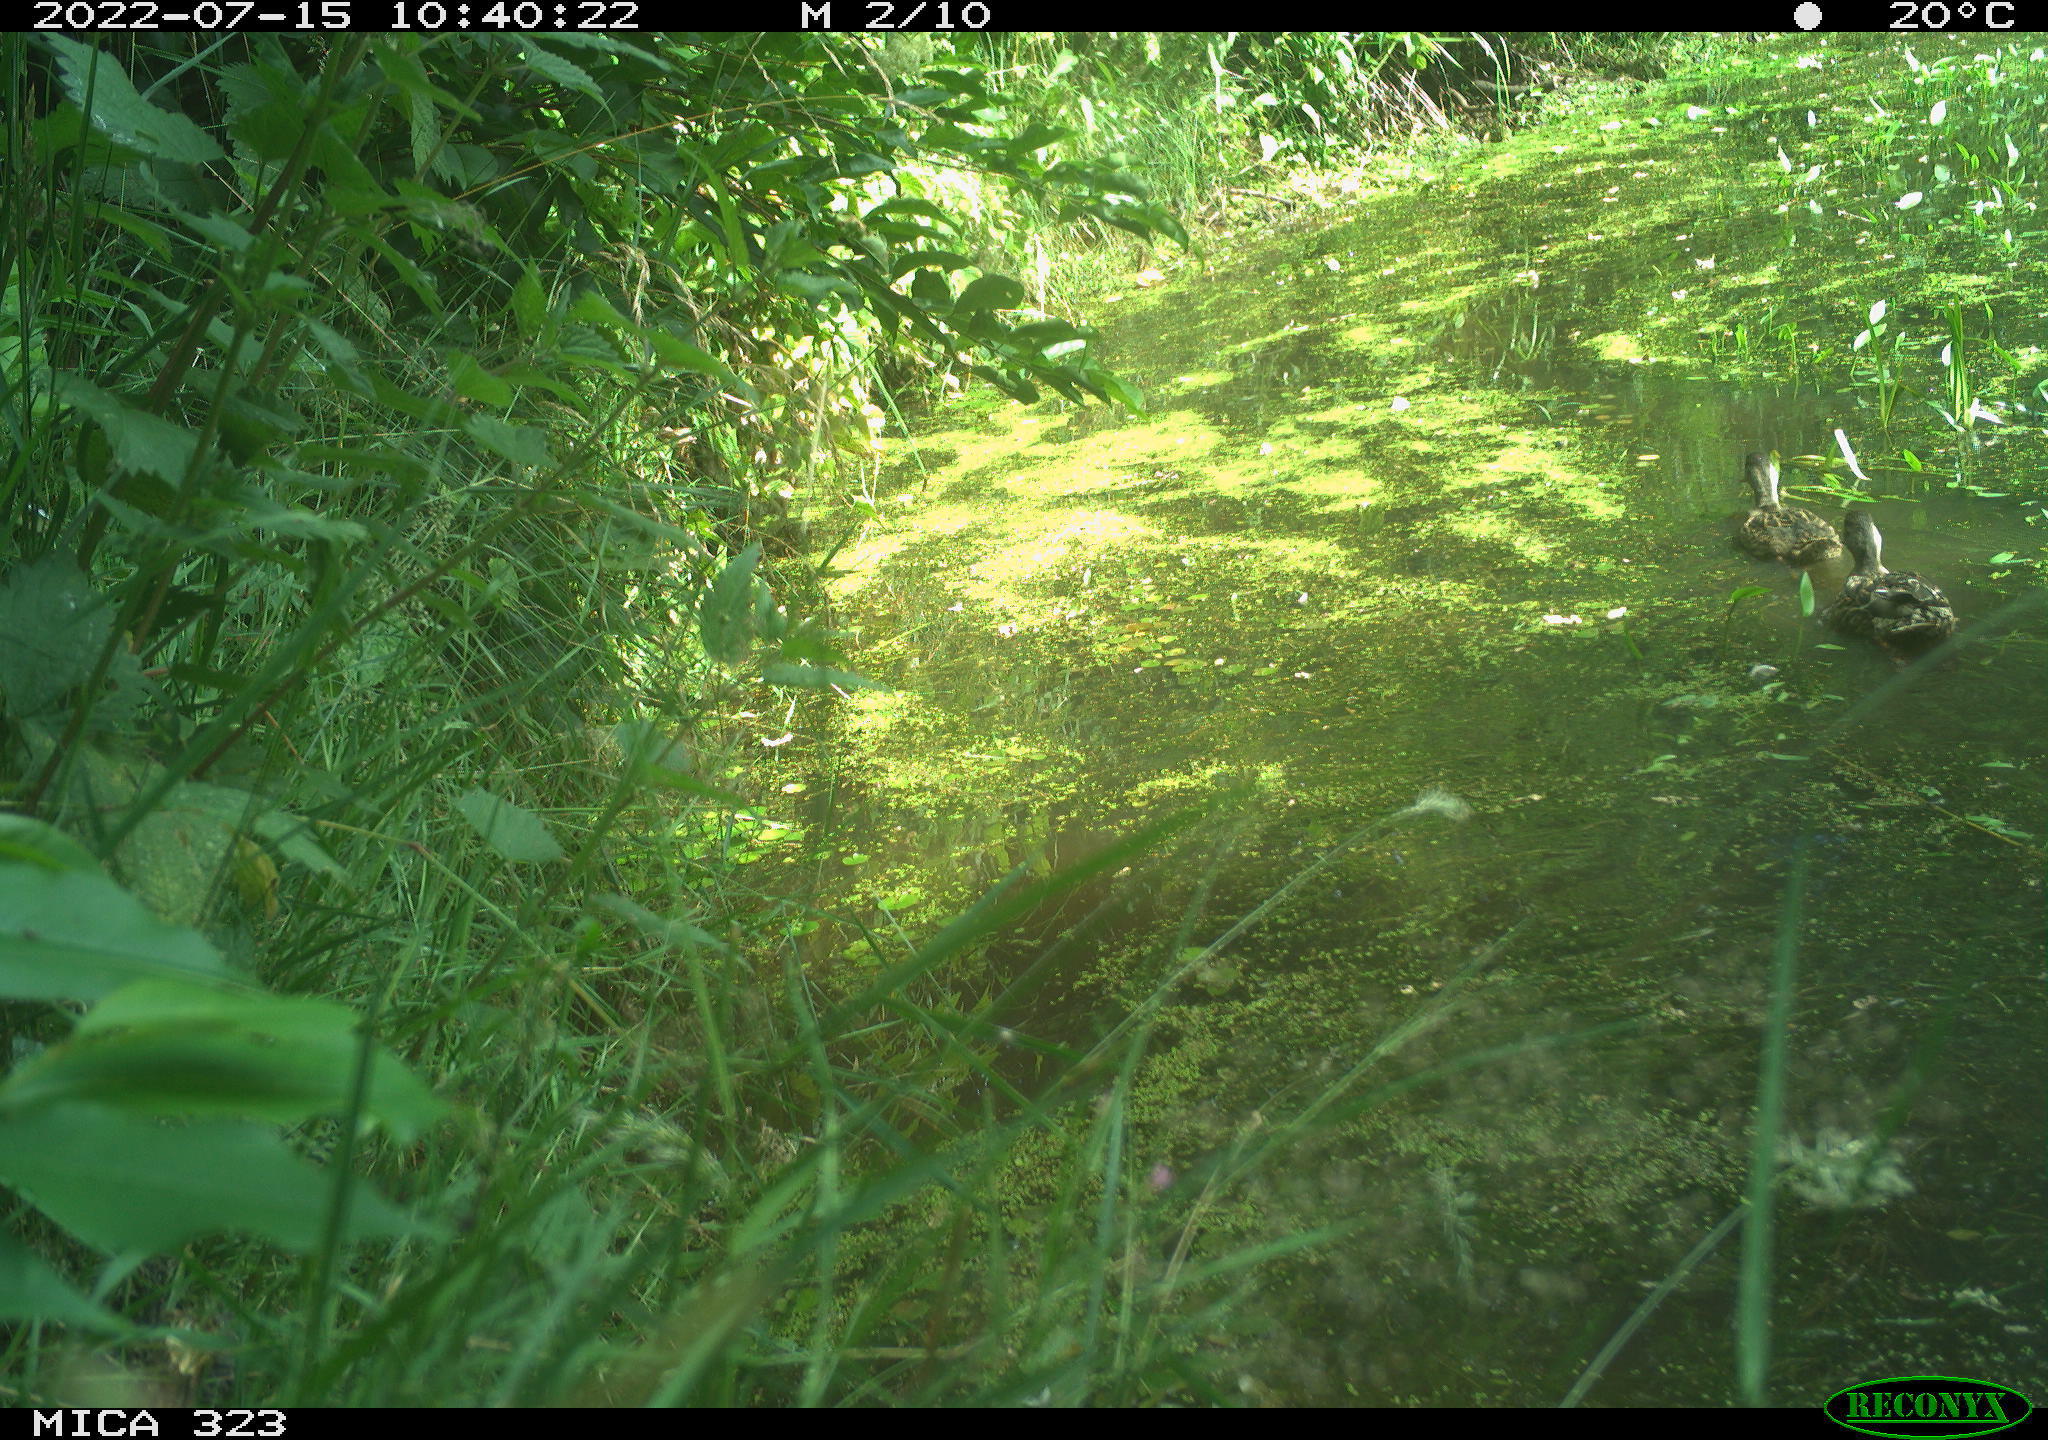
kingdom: Animalia
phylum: Chordata
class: Aves
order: Anseriformes
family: Anatidae
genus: Anas
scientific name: Anas platyrhynchos
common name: Mallard
